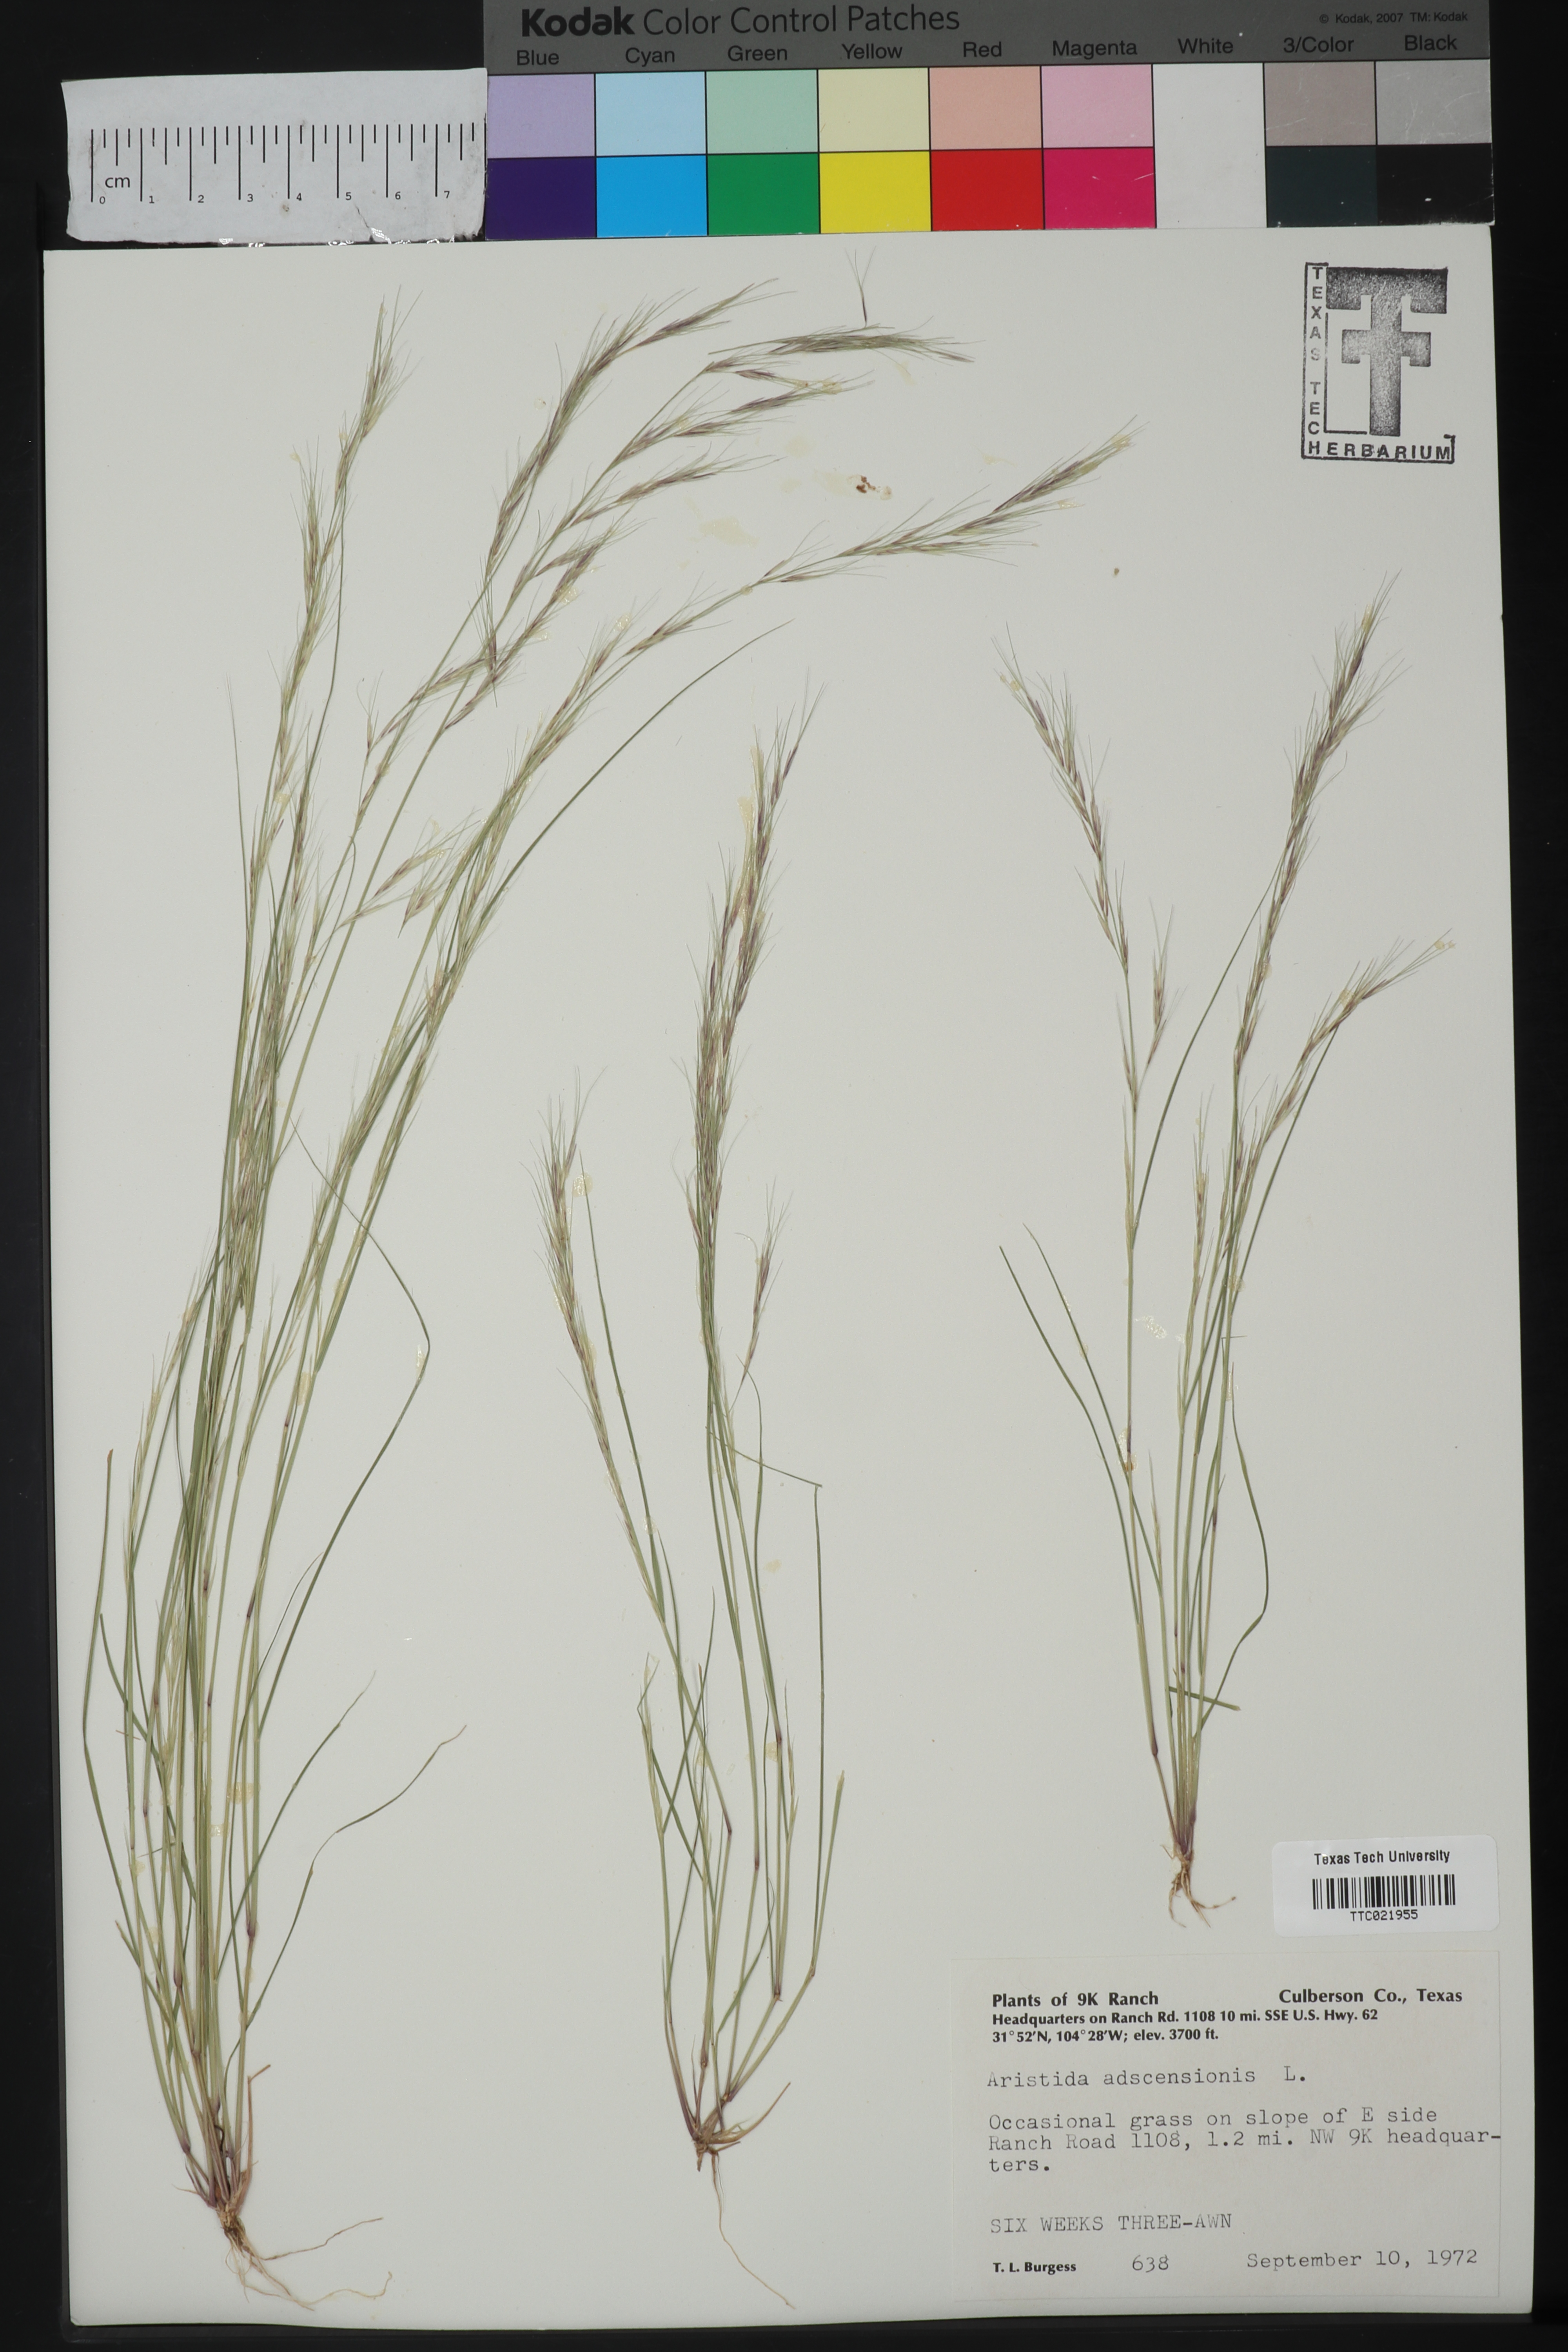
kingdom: Plantae
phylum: Tracheophyta
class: Liliopsida
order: Poales
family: Poaceae
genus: Aristida
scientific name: Aristida adscensionis
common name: Sixweeks threeawn
